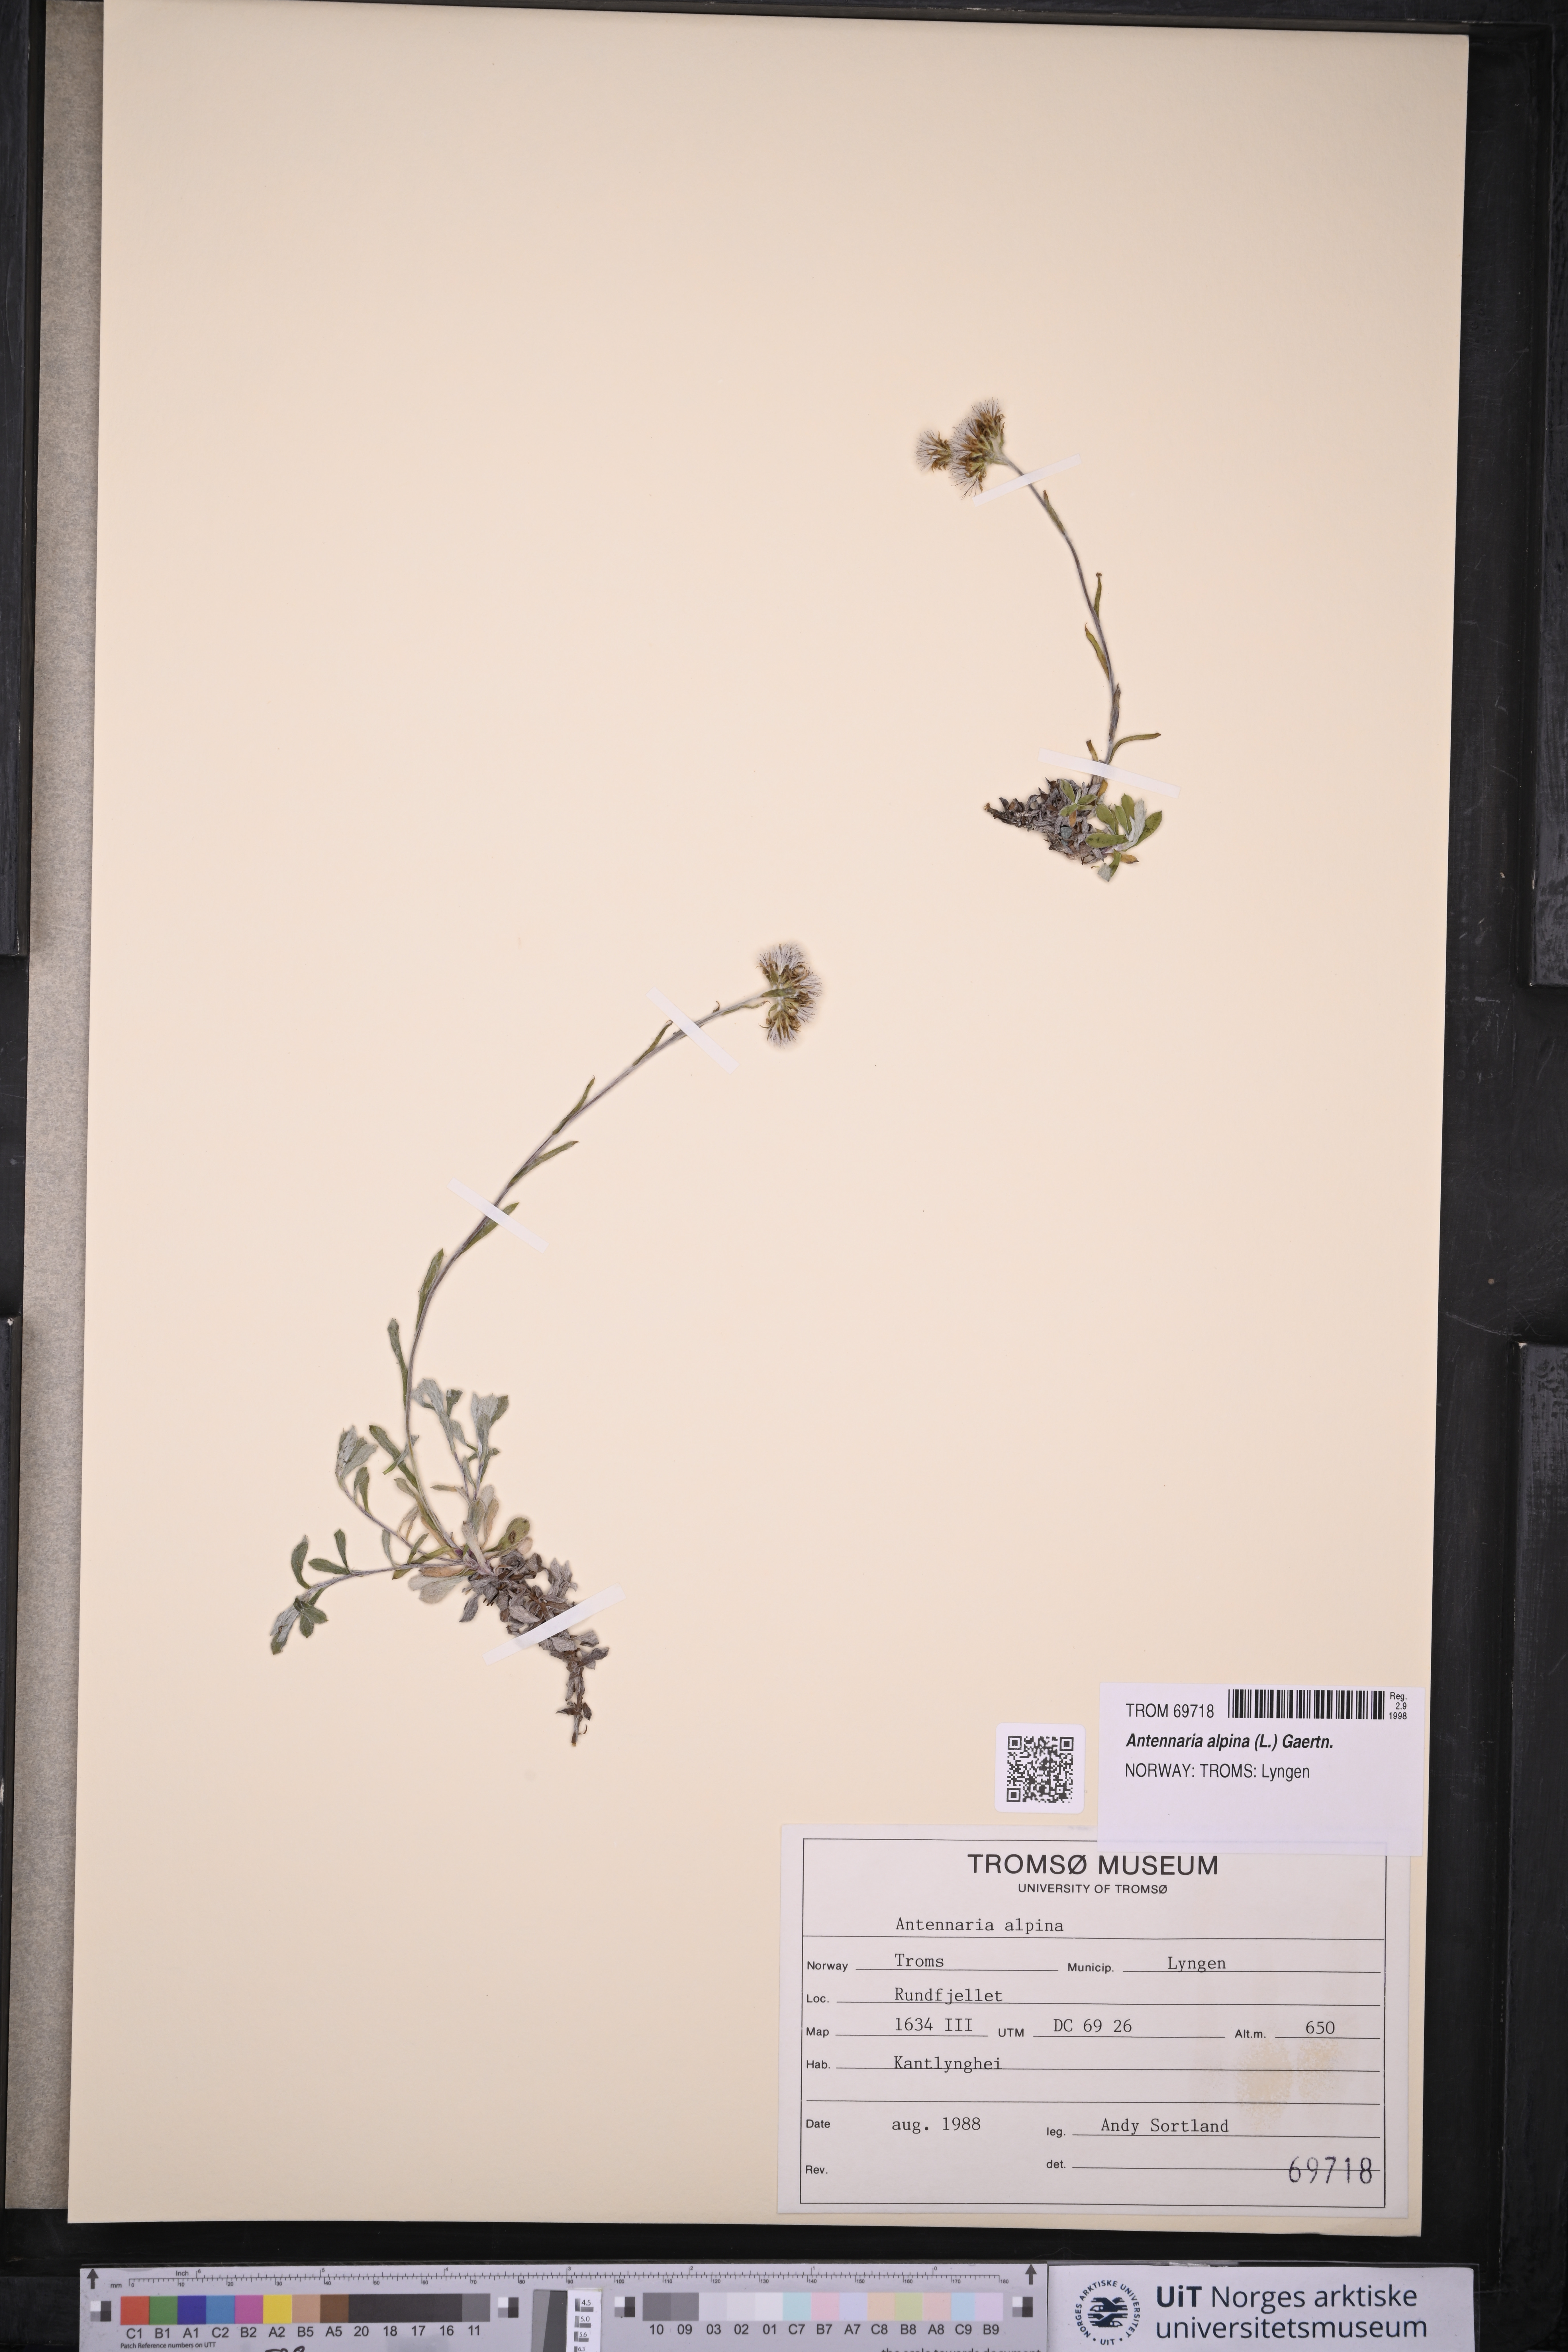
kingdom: Plantae
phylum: Tracheophyta
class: Magnoliopsida
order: Asterales
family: Asteraceae
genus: Antennaria
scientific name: Antennaria alpina
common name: Alpine pussytoes
